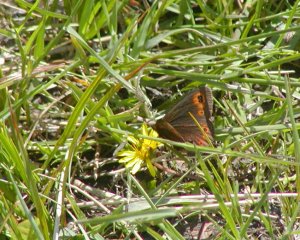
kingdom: Animalia
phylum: Arthropoda
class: Insecta
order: Lepidoptera
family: Nymphalidae
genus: Erebia
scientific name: Erebia epipsodea
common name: Common Alpine
